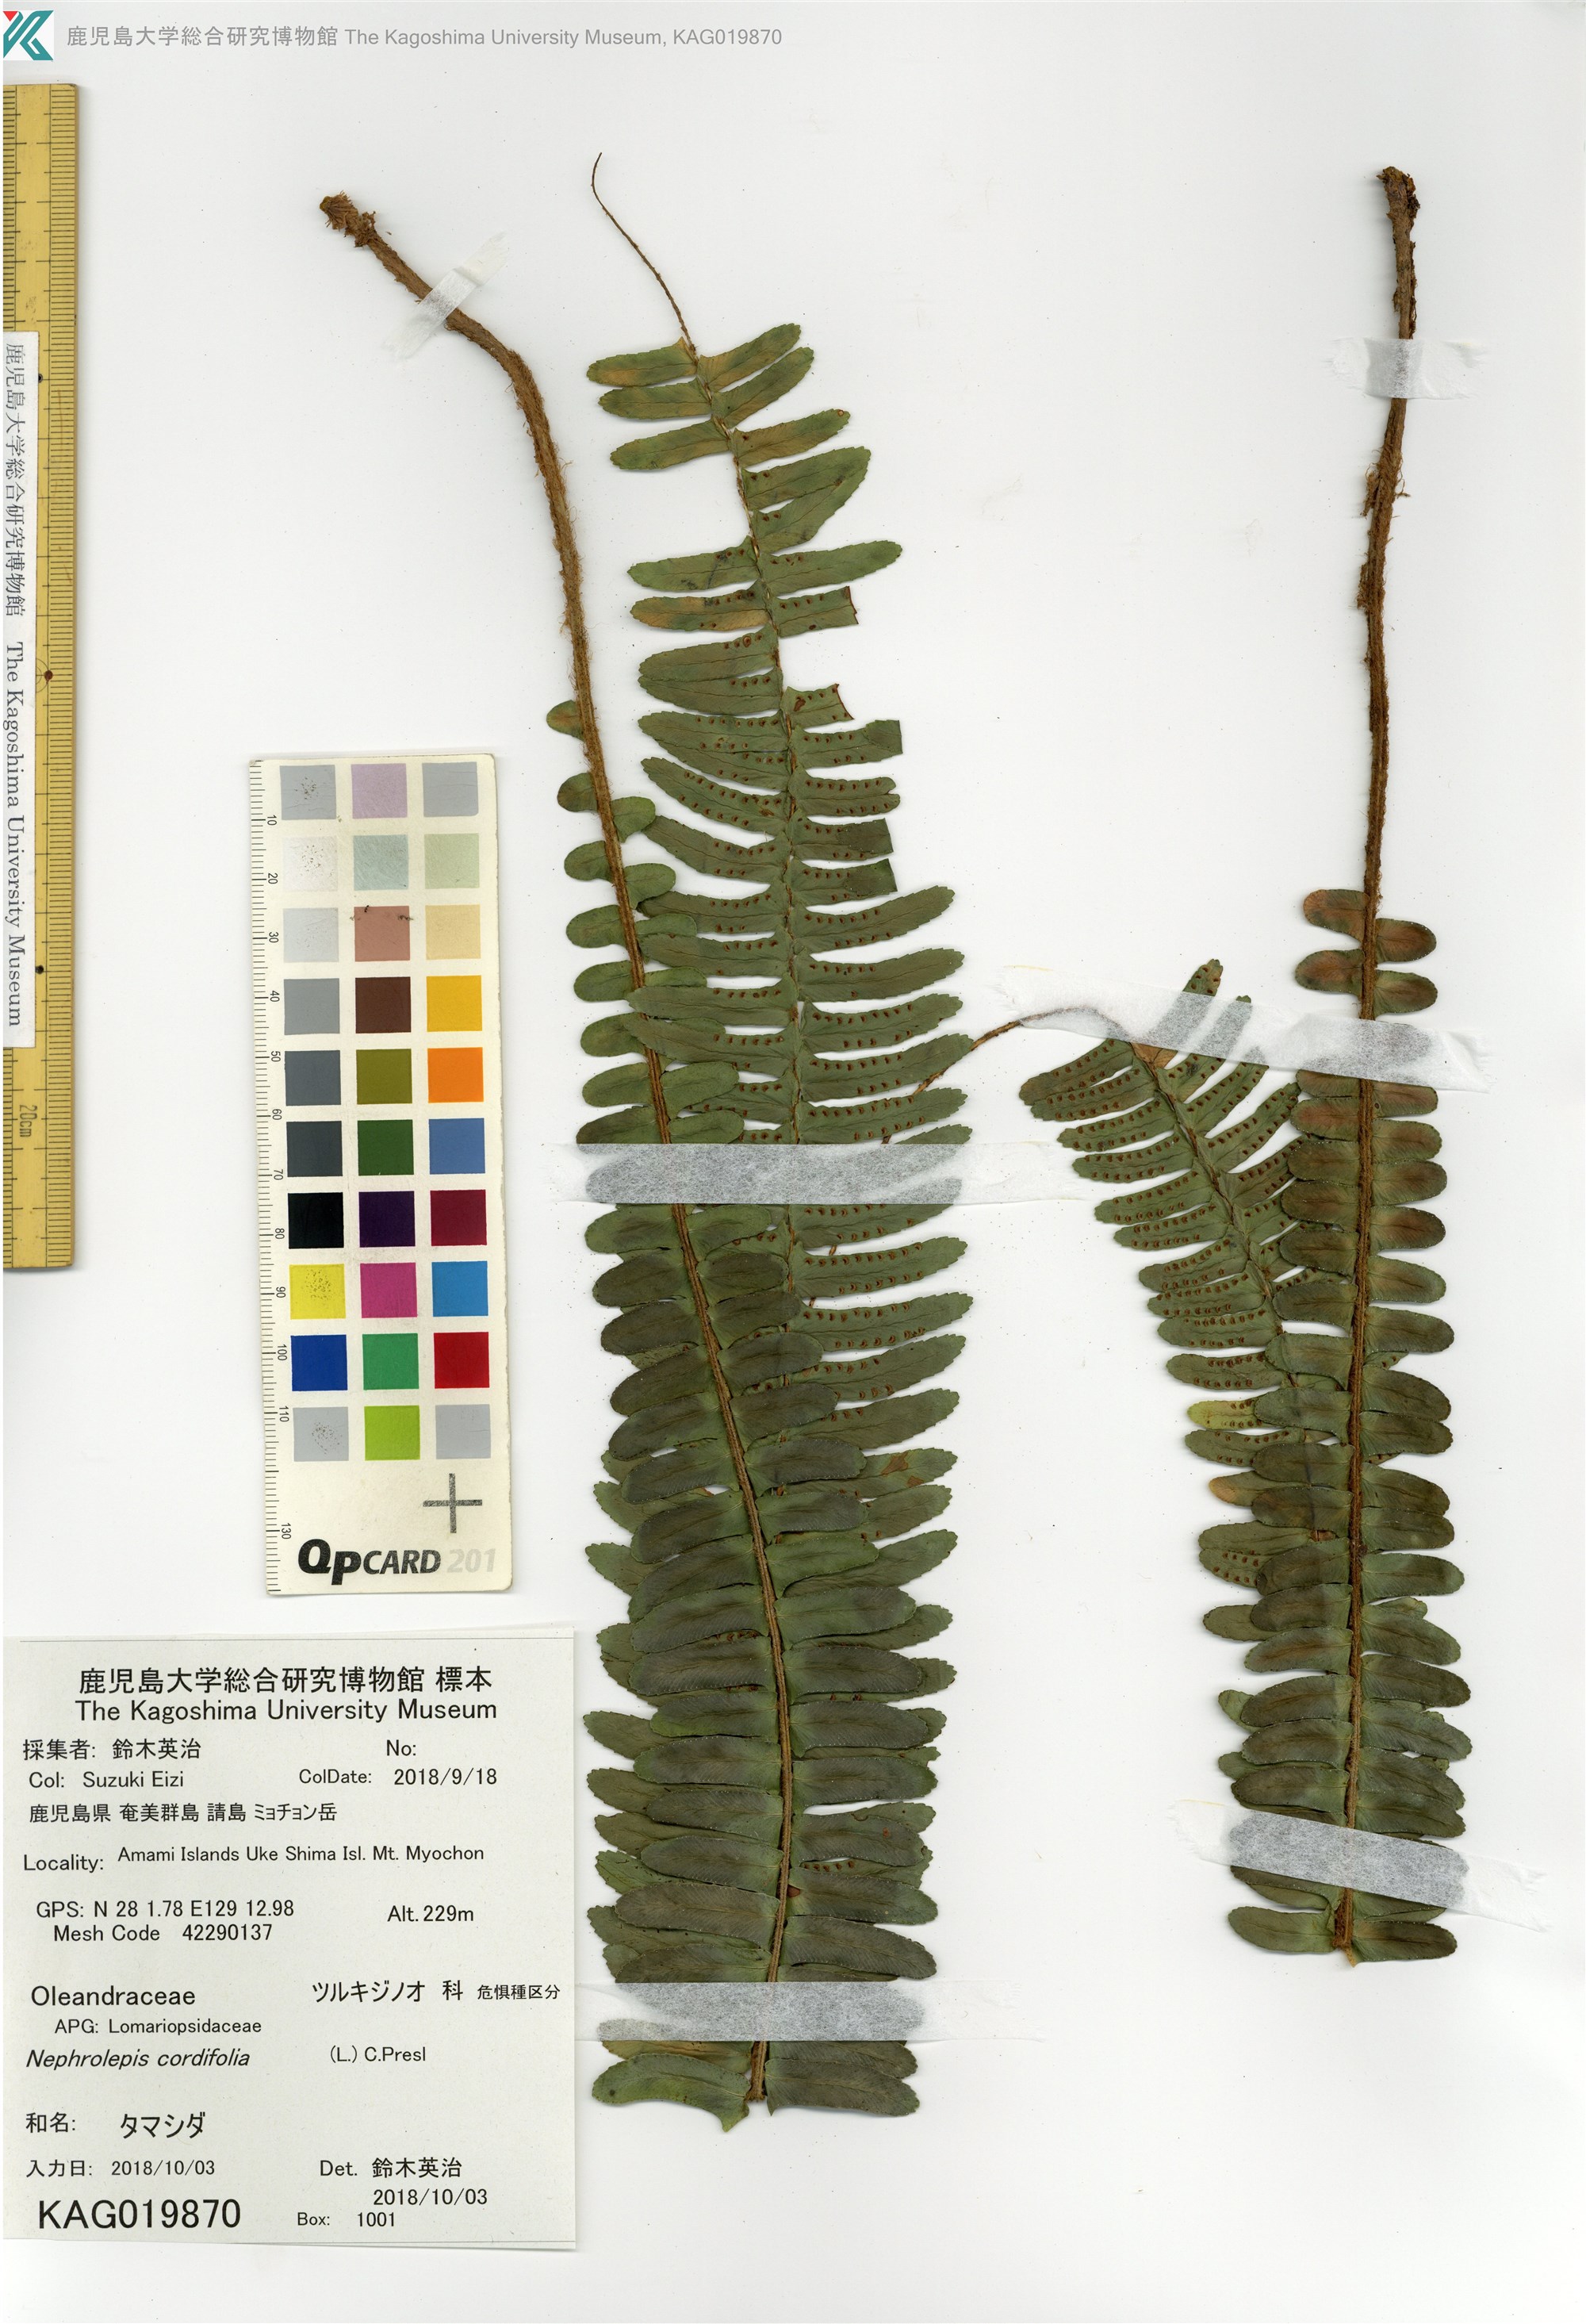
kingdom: Plantae
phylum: Tracheophyta
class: Polypodiopsida
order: Polypodiales
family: Nephrolepidaceae
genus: Nephrolepis
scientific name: Nephrolepis cordifolia
